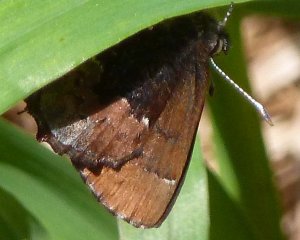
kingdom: Animalia
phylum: Arthropoda
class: Insecta
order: Lepidoptera
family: Lycaenidae
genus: Incisalia
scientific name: Incisalia henrici
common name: Henry's Elfin
